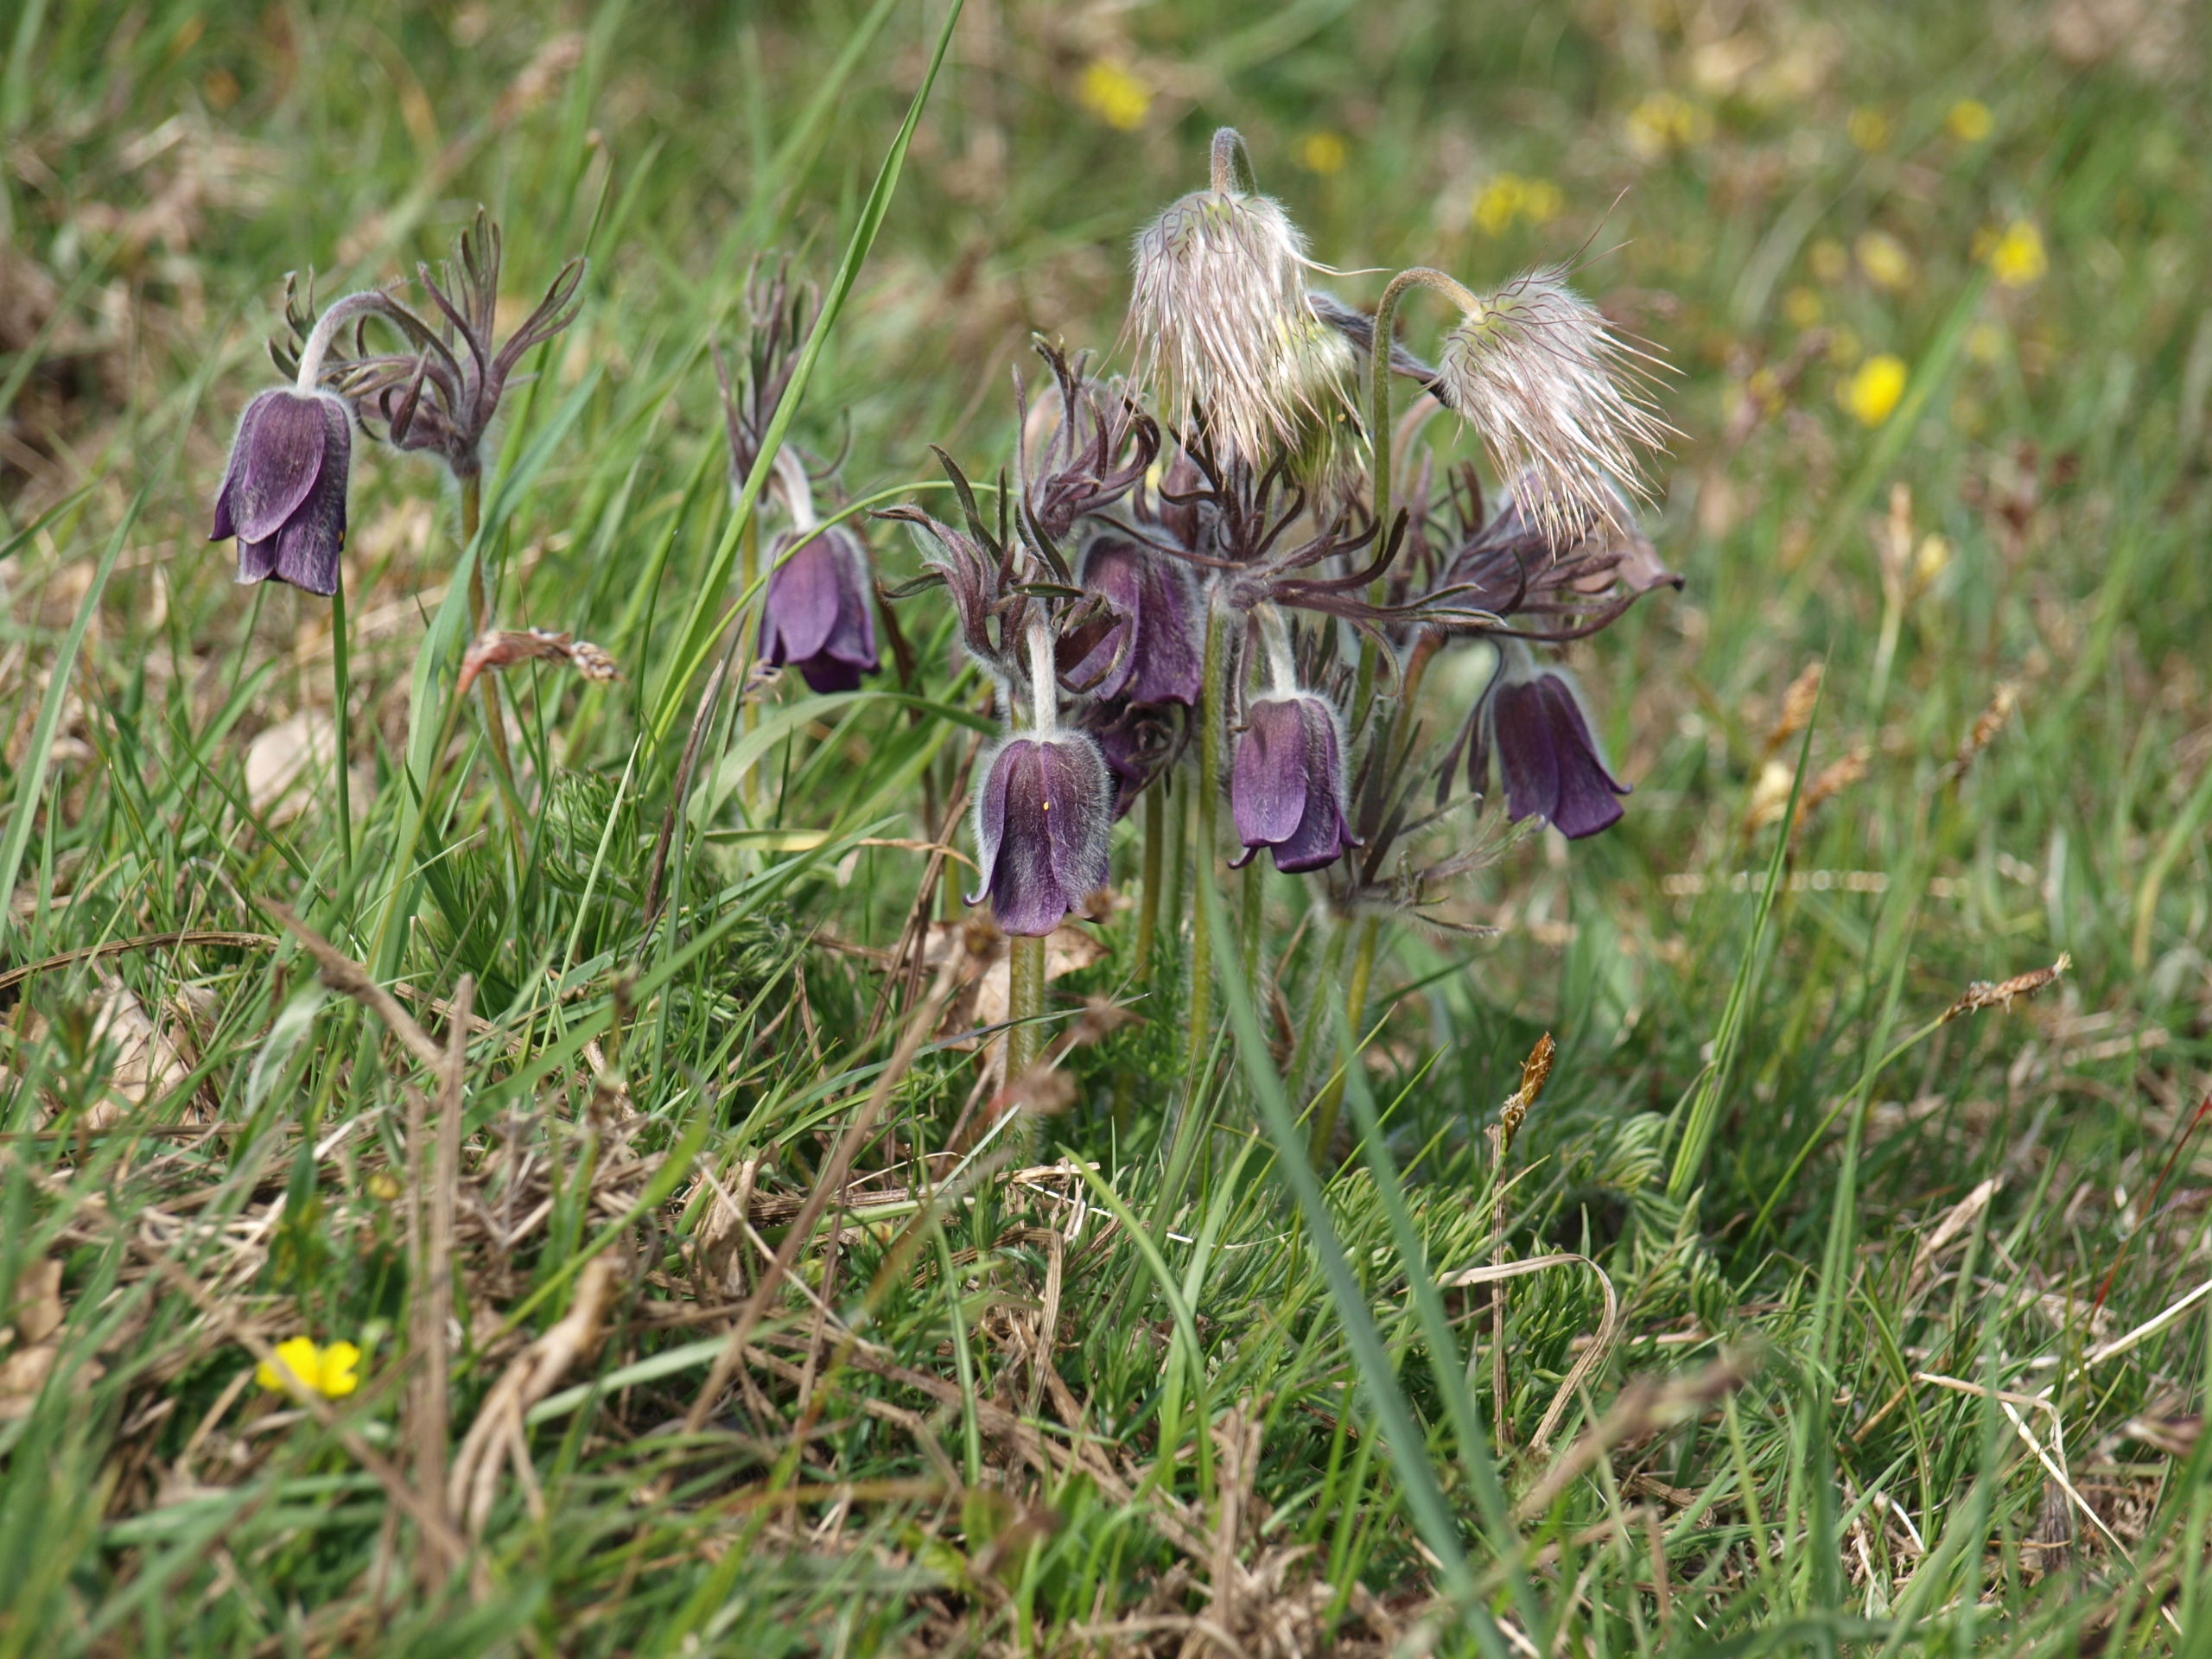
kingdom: Plantae
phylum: Tracheophyta
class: Magnoliopsida
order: Ranunculales
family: Ranunculaceae
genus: Pulsatilla
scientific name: Pulsatilla pratensis
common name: Nikkende kobjælde
